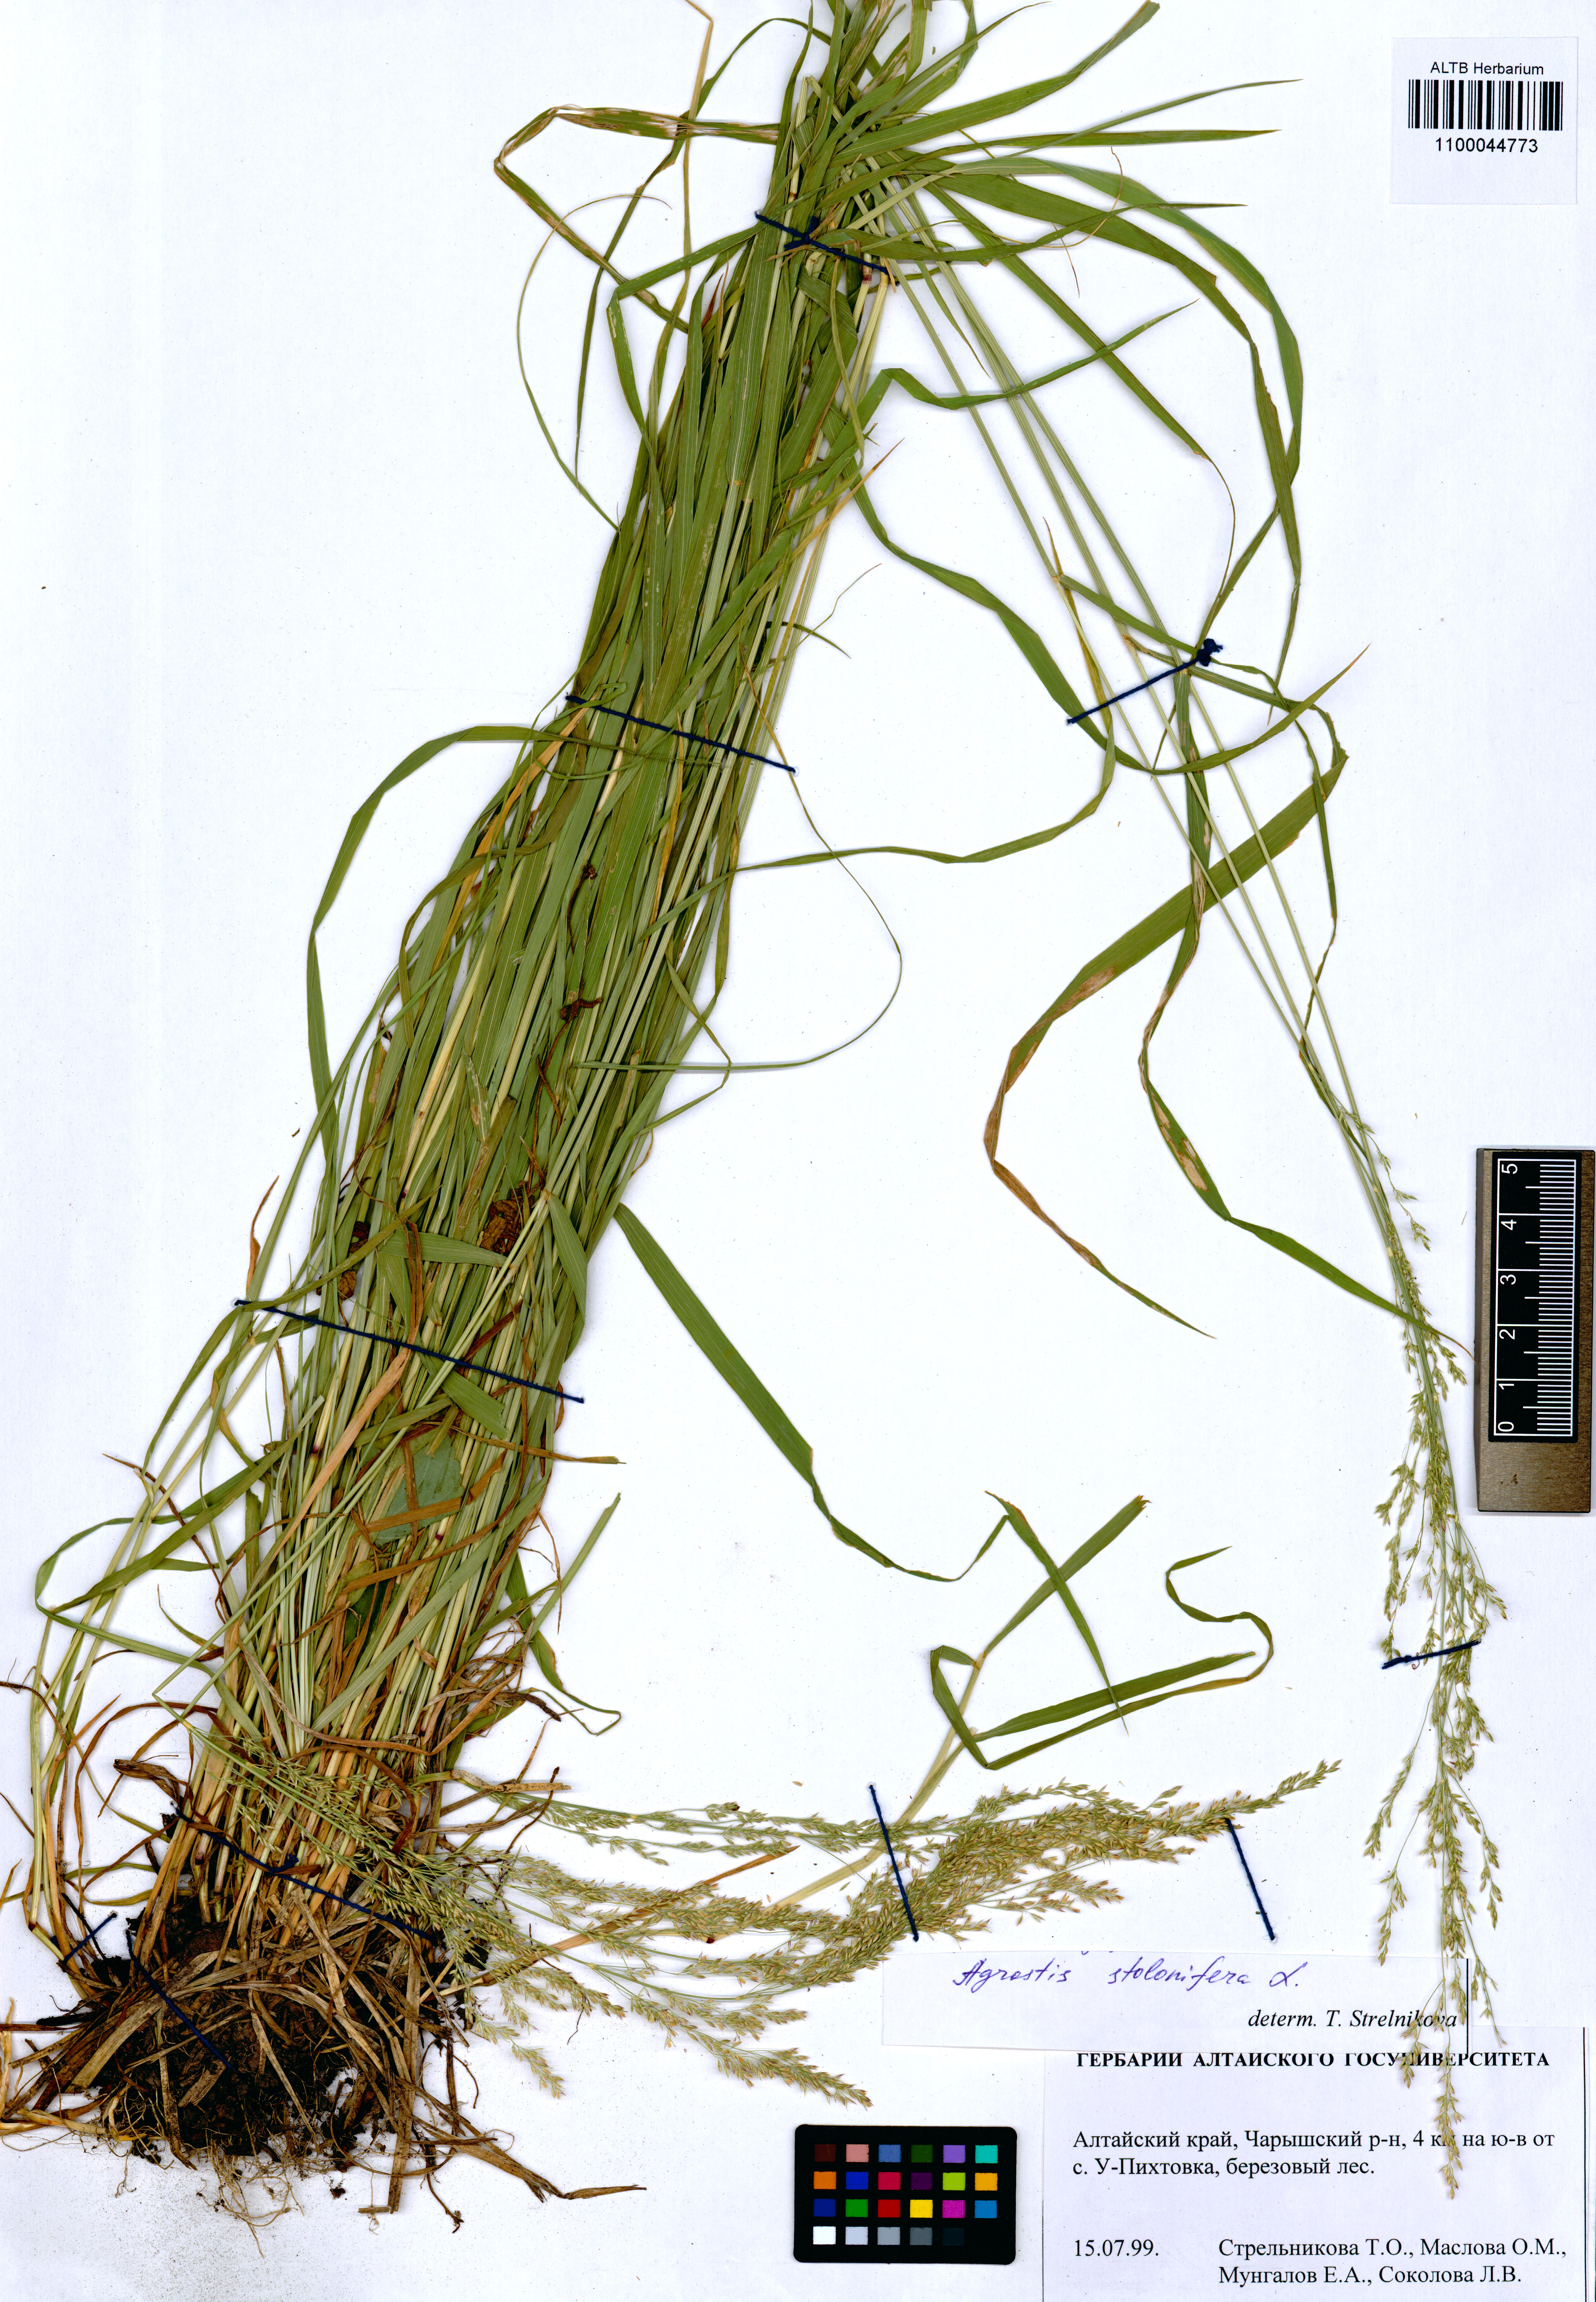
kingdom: Plantae
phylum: Tracheophyta
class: Liliopsida
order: Poales
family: Poaceae
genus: Agrostis
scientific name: Agrostis stolonifera
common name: Creeping bentgrass
